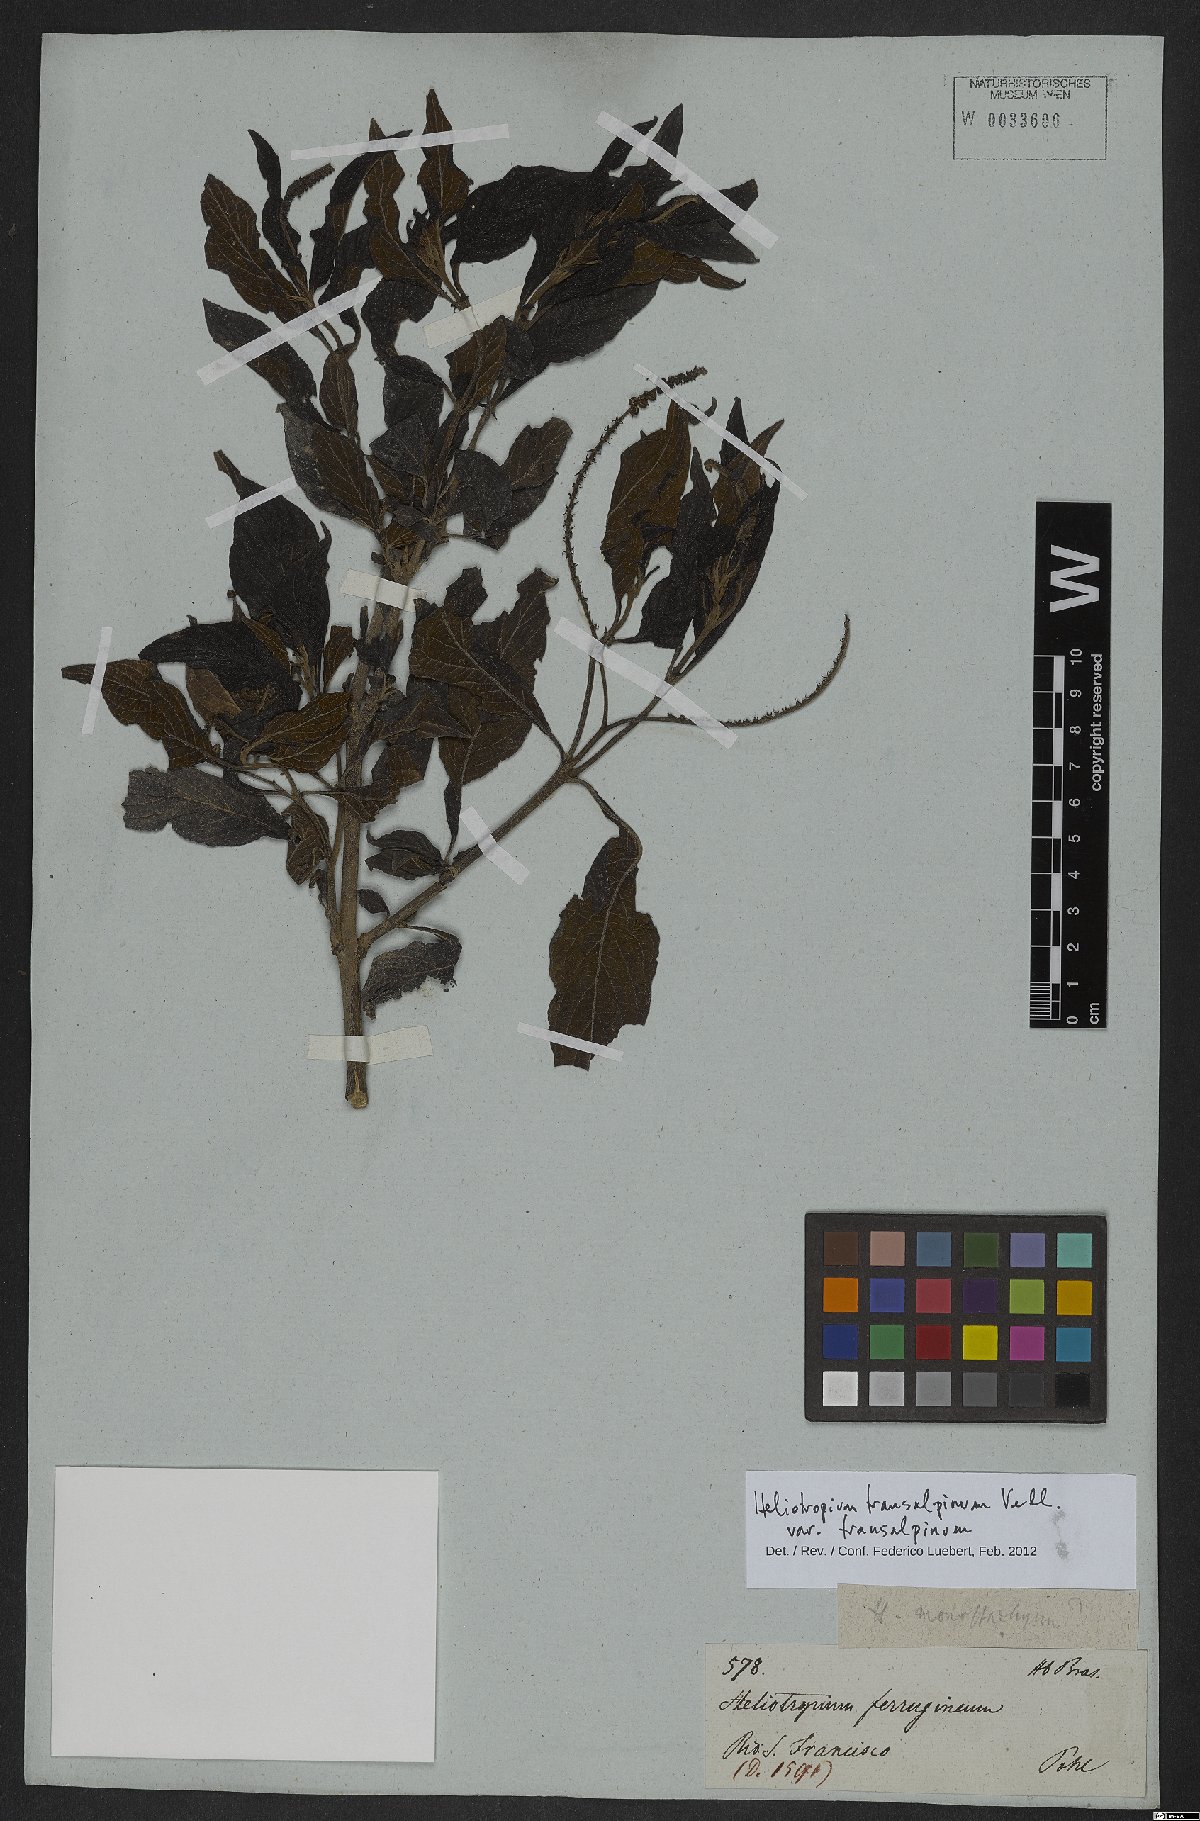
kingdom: Plantae
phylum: Tracheophyta
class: Magnoliopsida
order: Boraginales
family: Heliotropiaceae
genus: Heliotropium
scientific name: Heliotropium transalpinum
